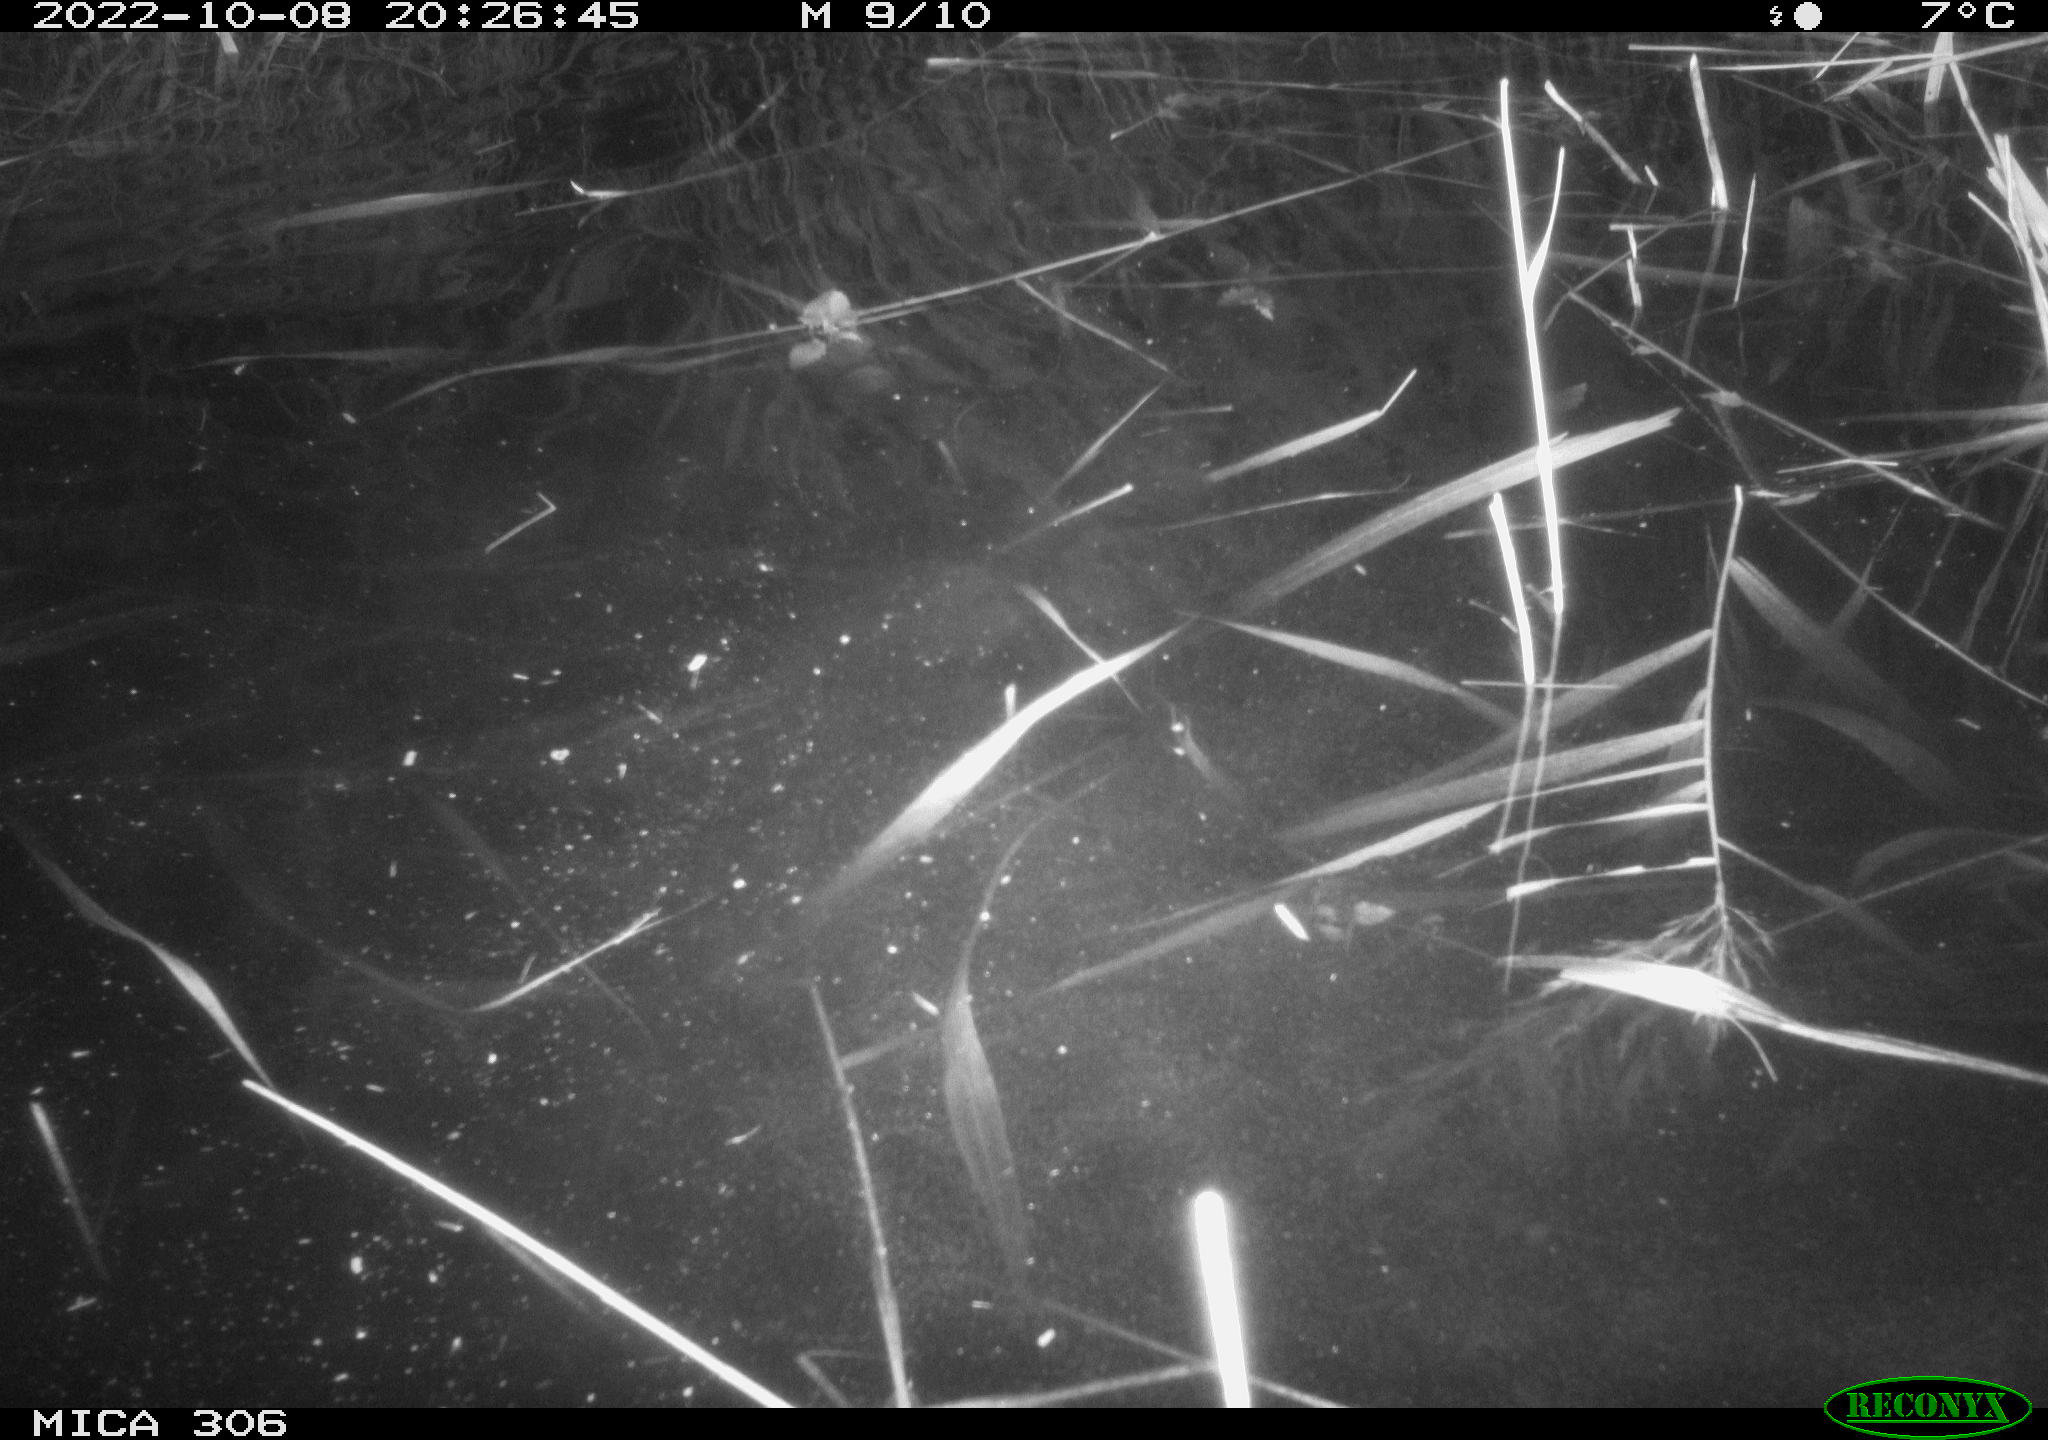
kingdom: Animalia
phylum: Chordata
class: Mammalia
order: Rodentia
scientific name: Rodentia
